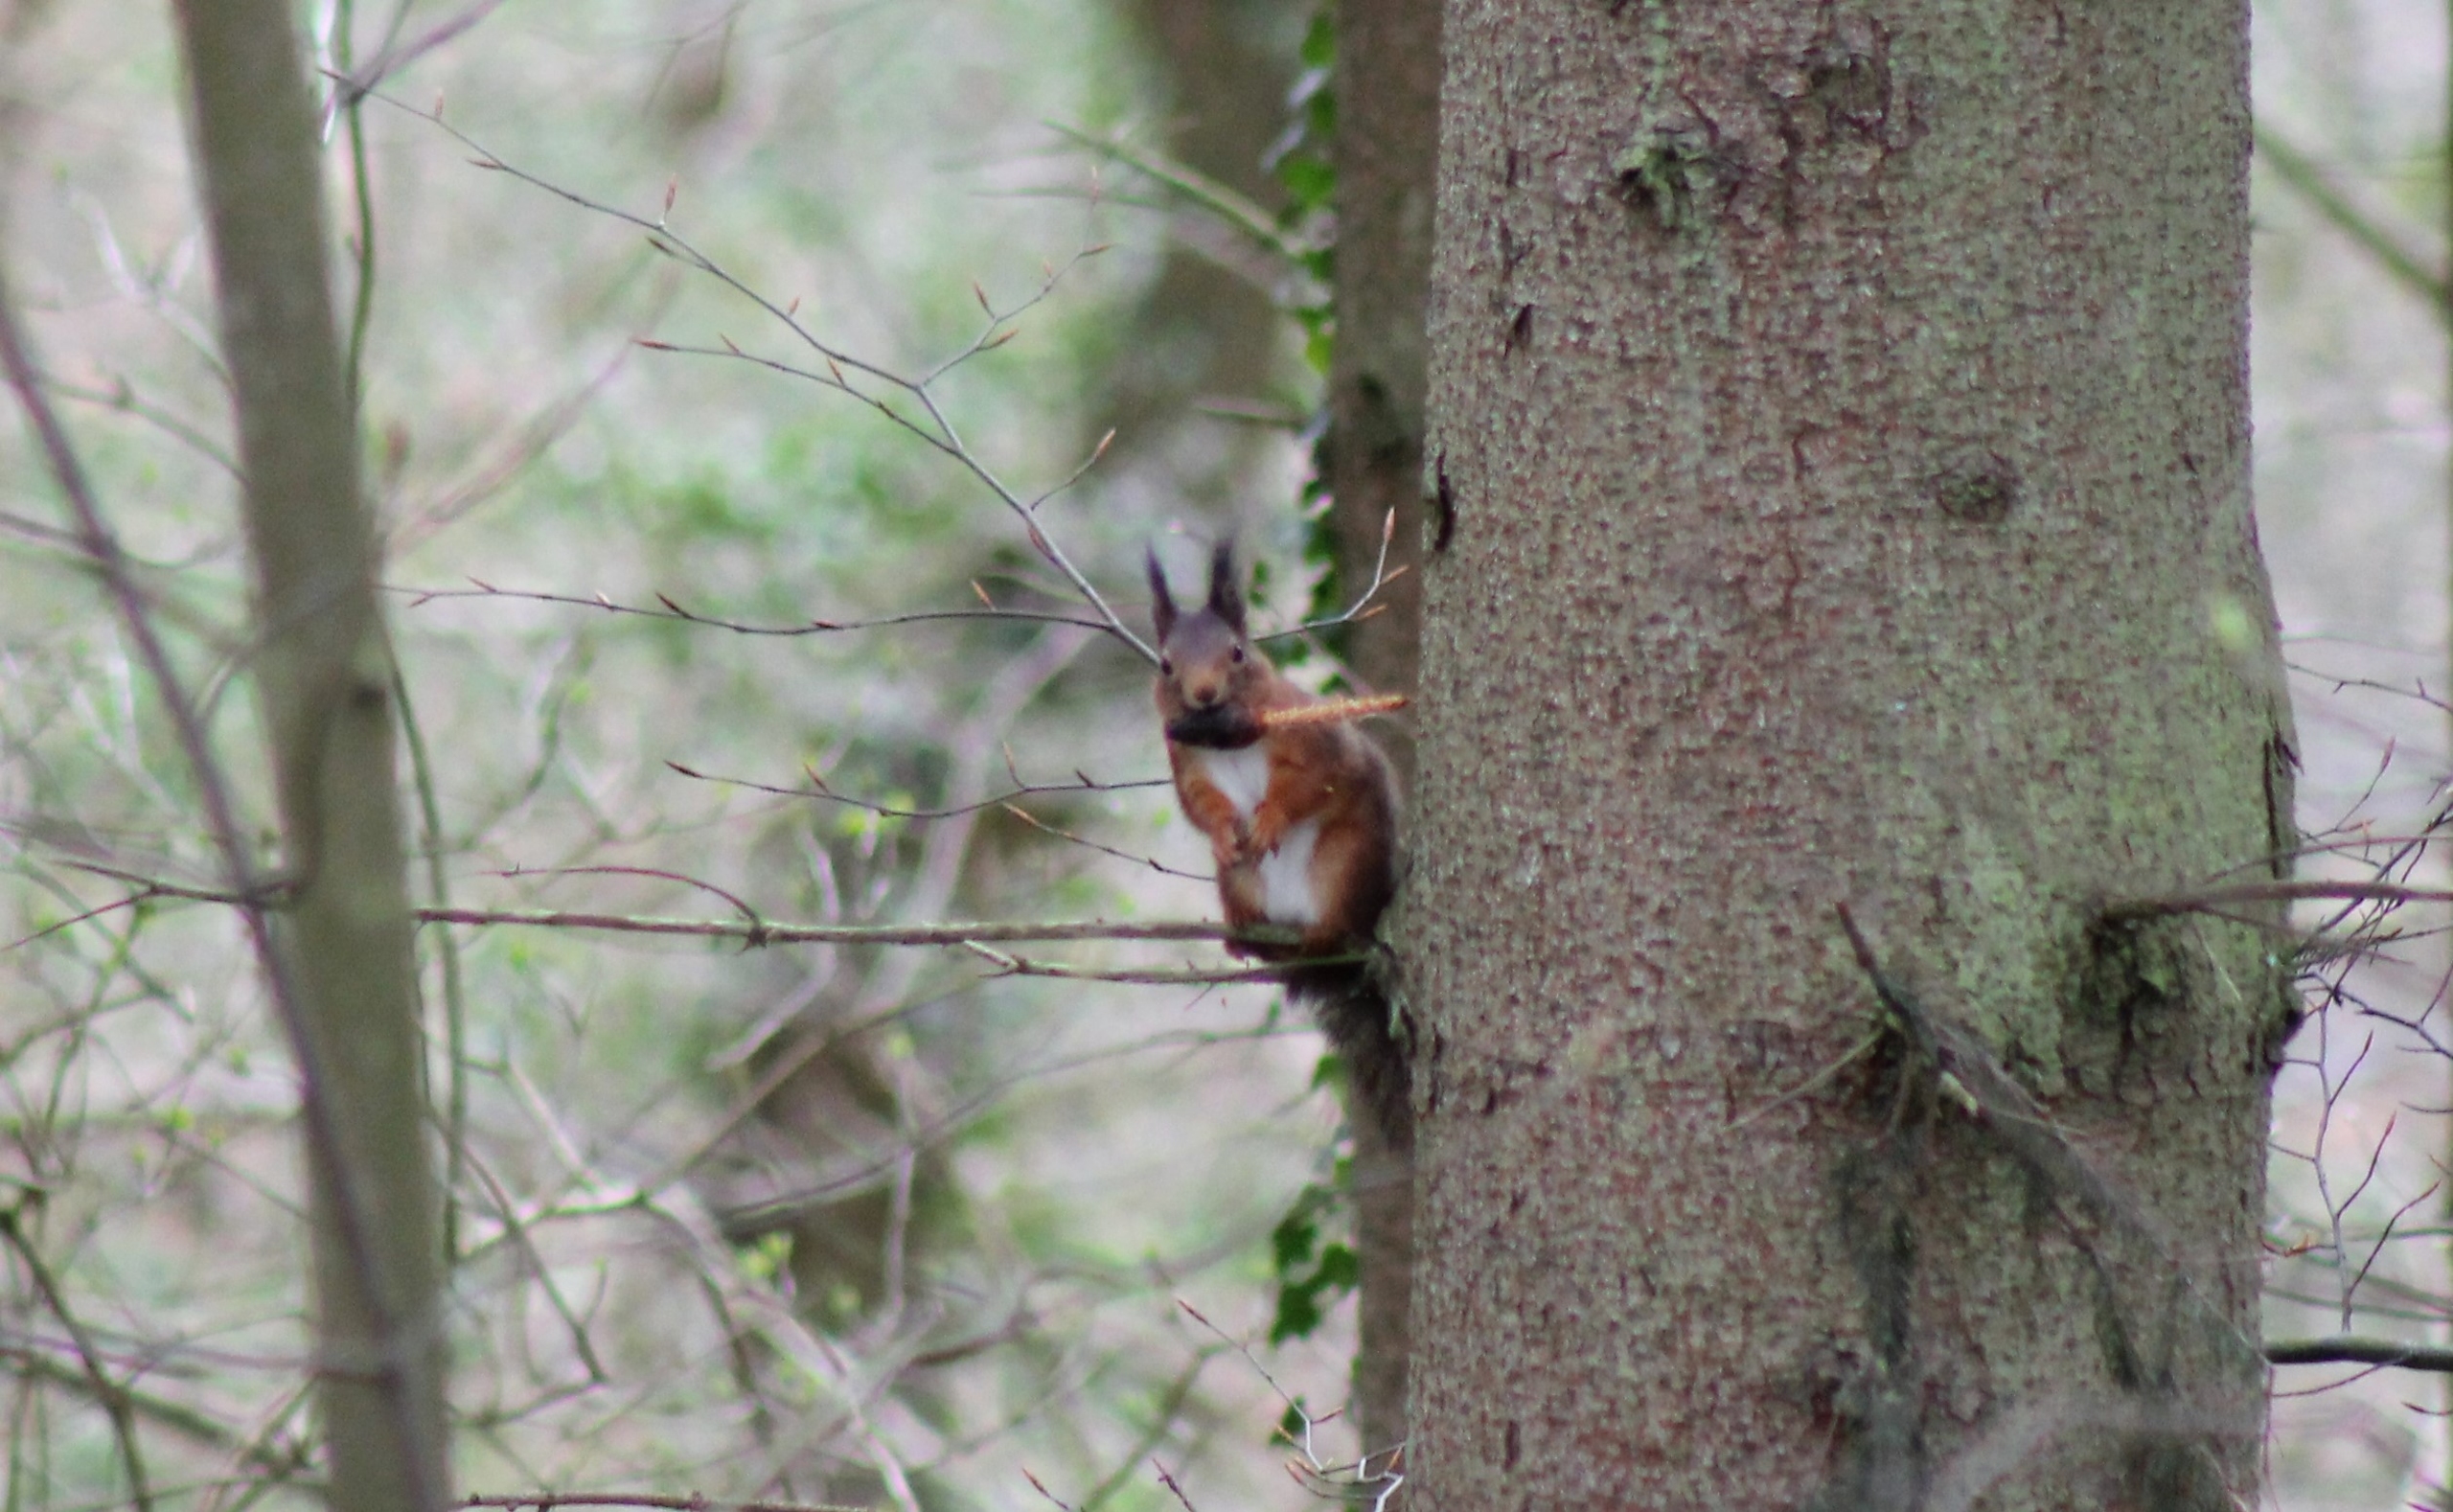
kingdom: Animalia
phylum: Chordata
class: Mammalia
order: Rodentia
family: Sciuridae
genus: Sciurus
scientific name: Sciurus vulgaris
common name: Egern
